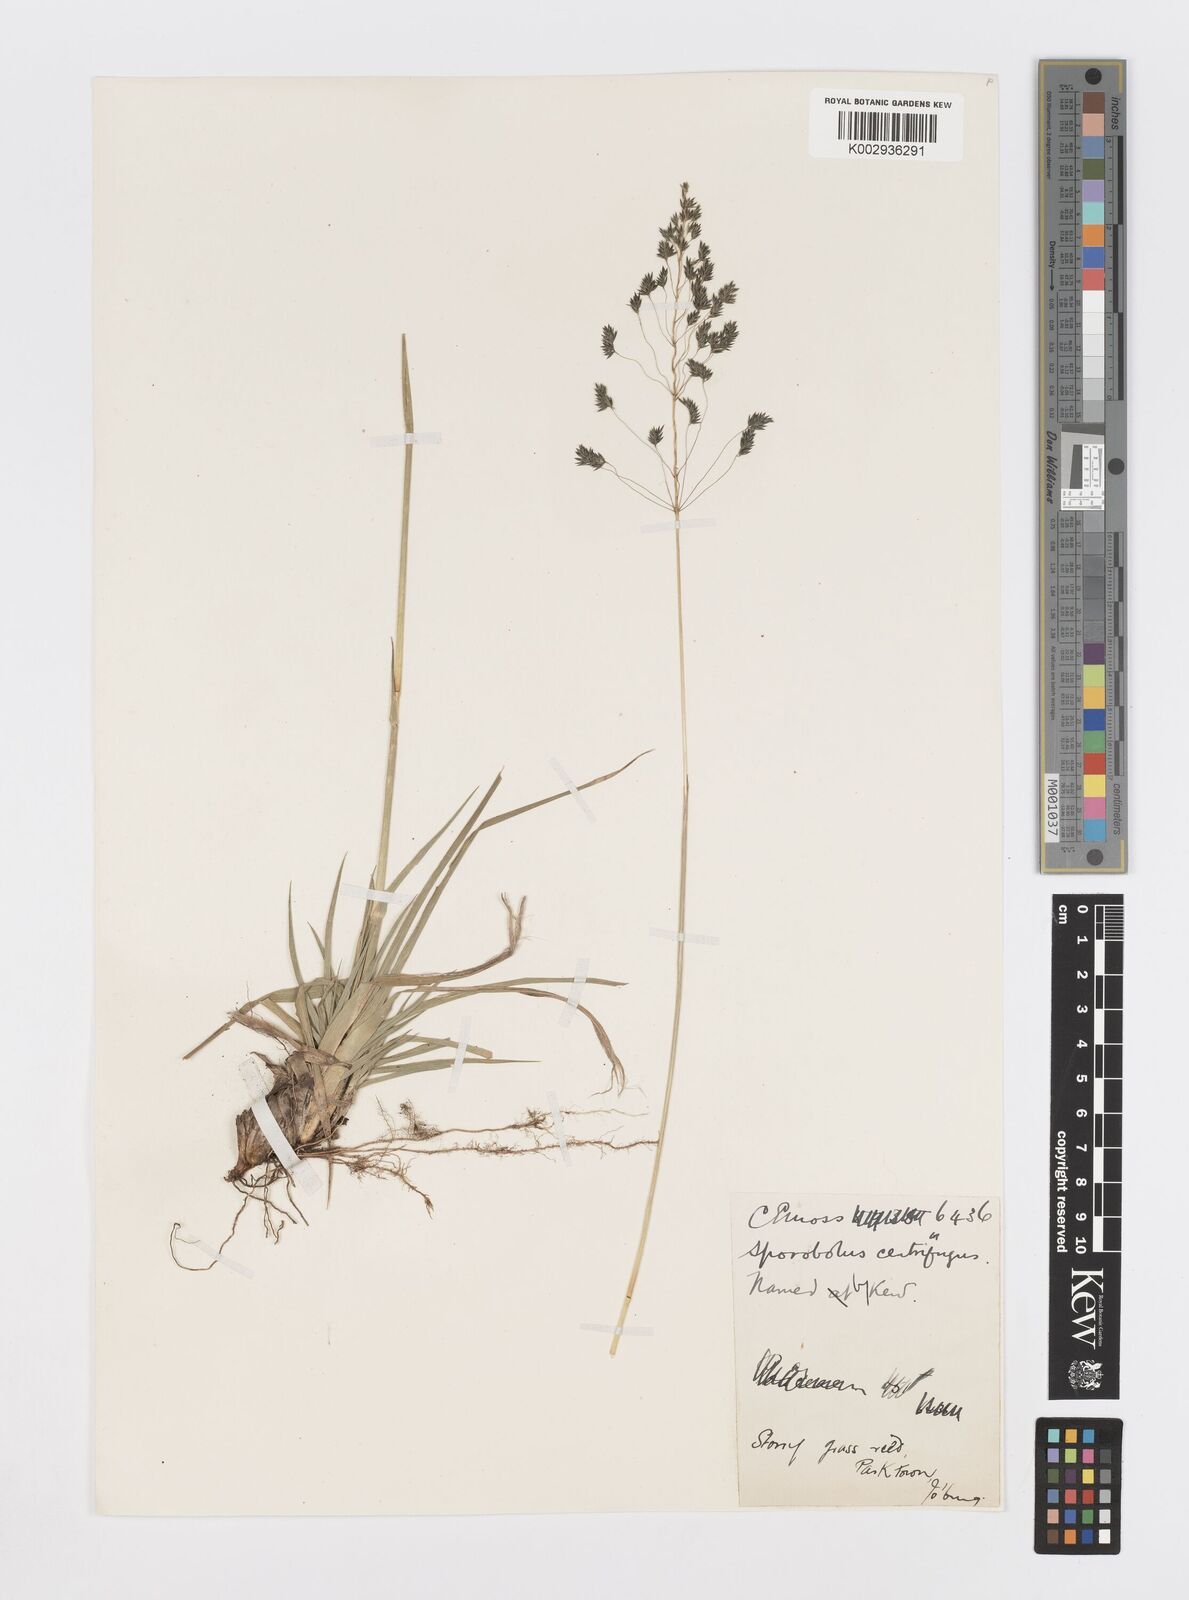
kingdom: Plantae
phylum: Tracheophyta
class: Liliopsida
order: Poales
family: Poaceae
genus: Sporobolus
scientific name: Sporobolus pectinatus
